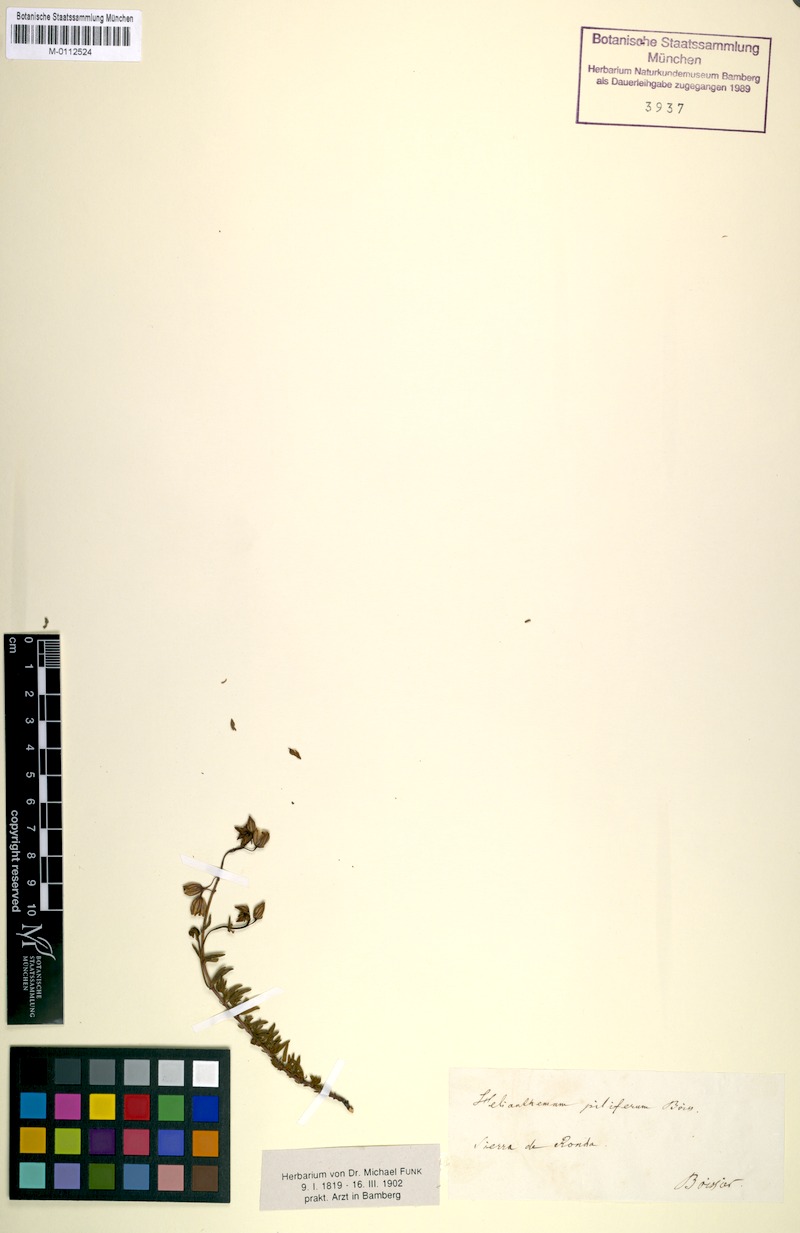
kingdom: Plantae
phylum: Tracheophyta
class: Magnoliopsida
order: Malvales
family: Cistaceae
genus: Helianthemum
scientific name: Helianthemum neopiliferum
